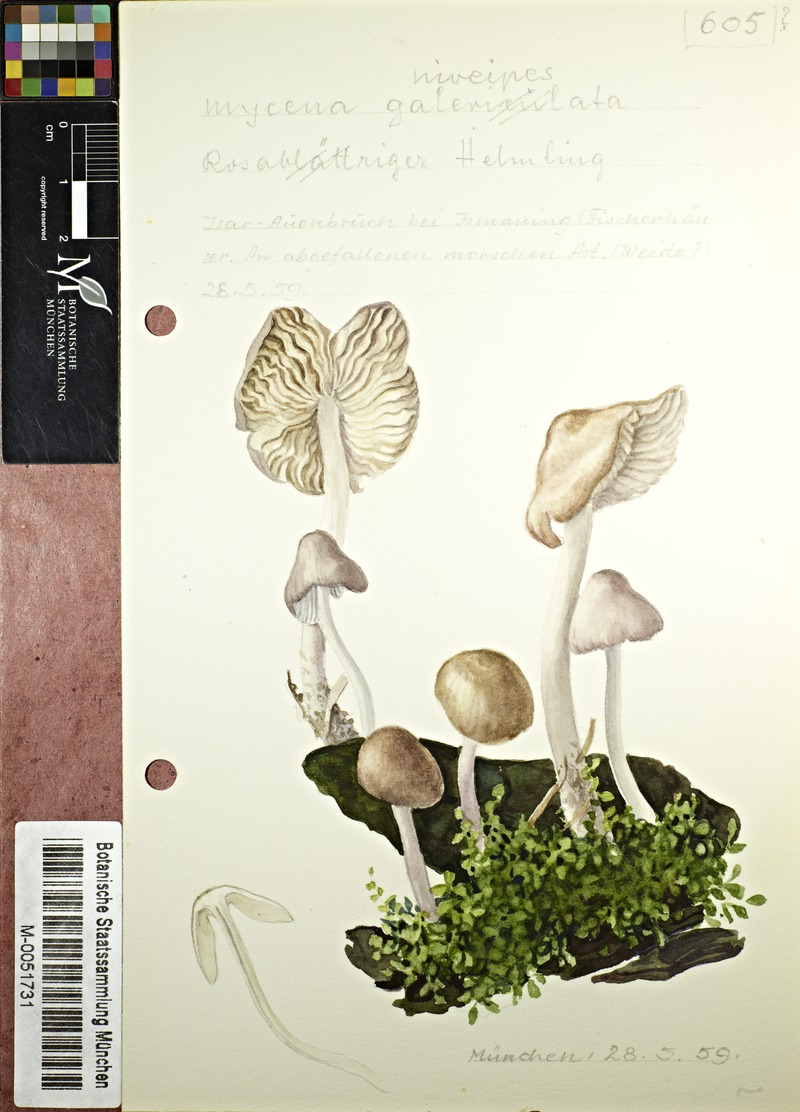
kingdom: Fungi
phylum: Basidiomycota
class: Agaricomycetes
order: Agaricales
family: Mycenaceae
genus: Mycena
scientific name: Mycena niveipes
